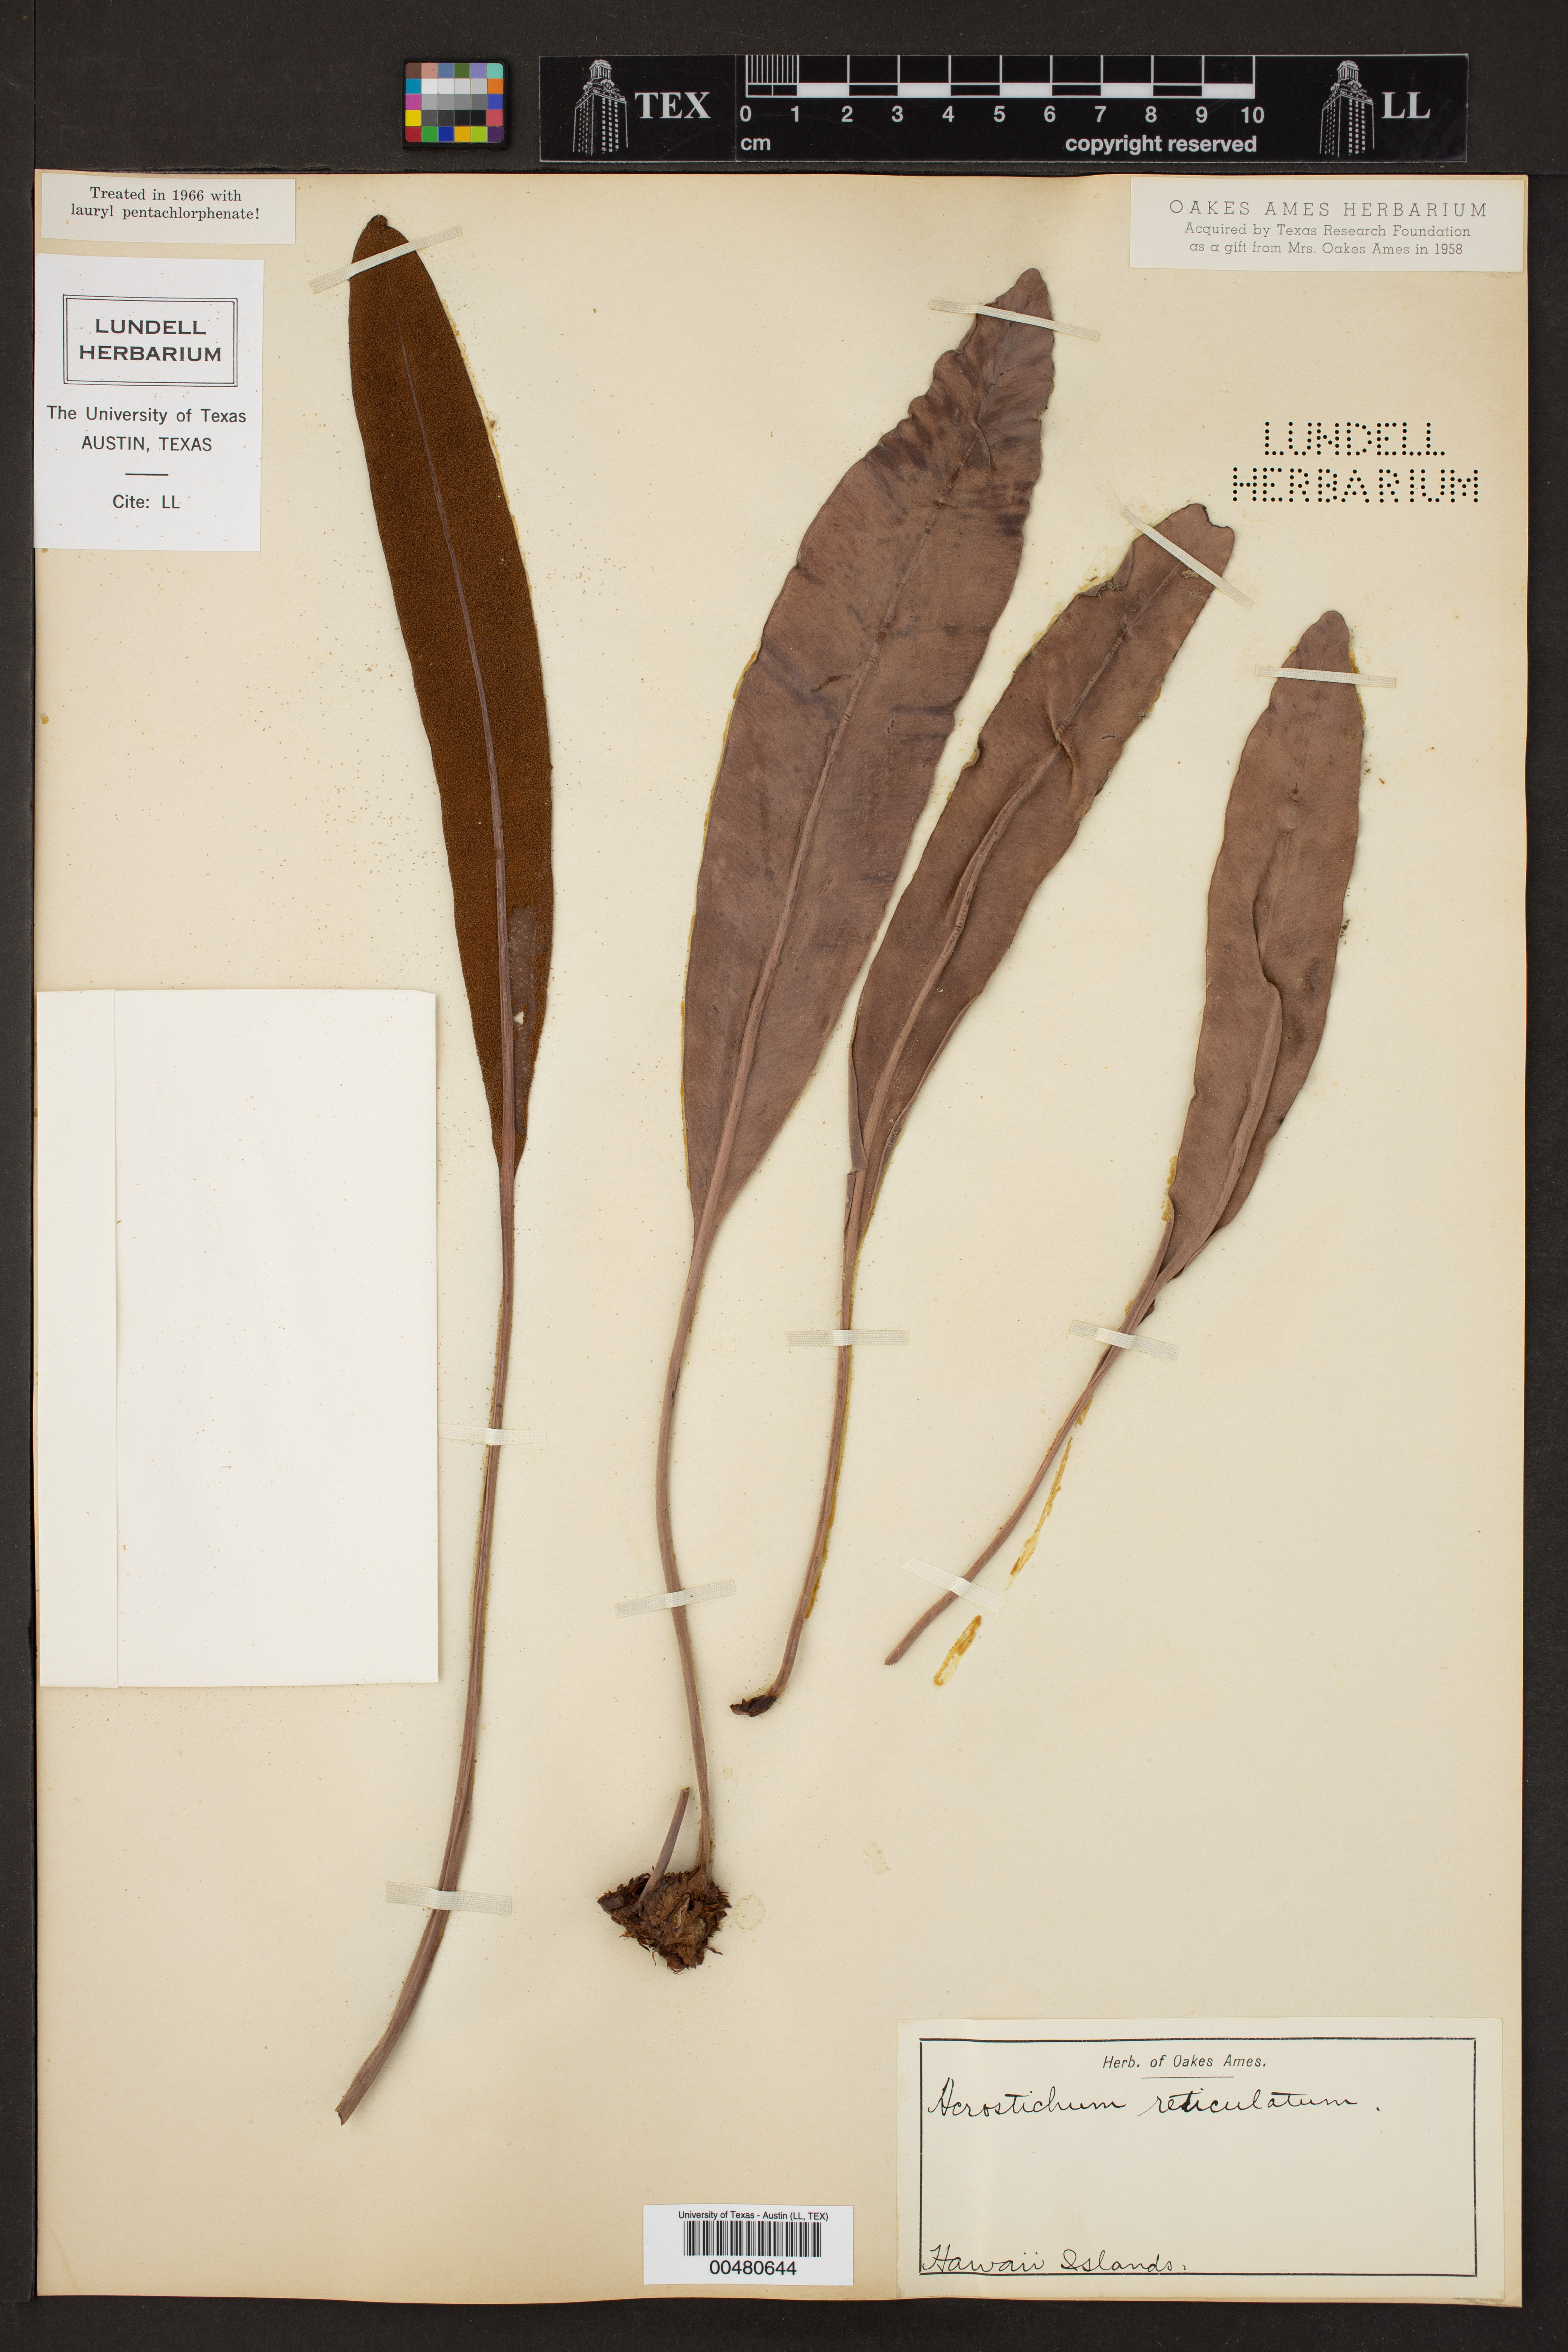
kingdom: Plantae
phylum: Tracheophyta
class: Polypodiopsida
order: Polypodiales
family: Dryopteridaceae
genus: Elaphoglossum
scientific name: Elaphoglossum crassifolium
